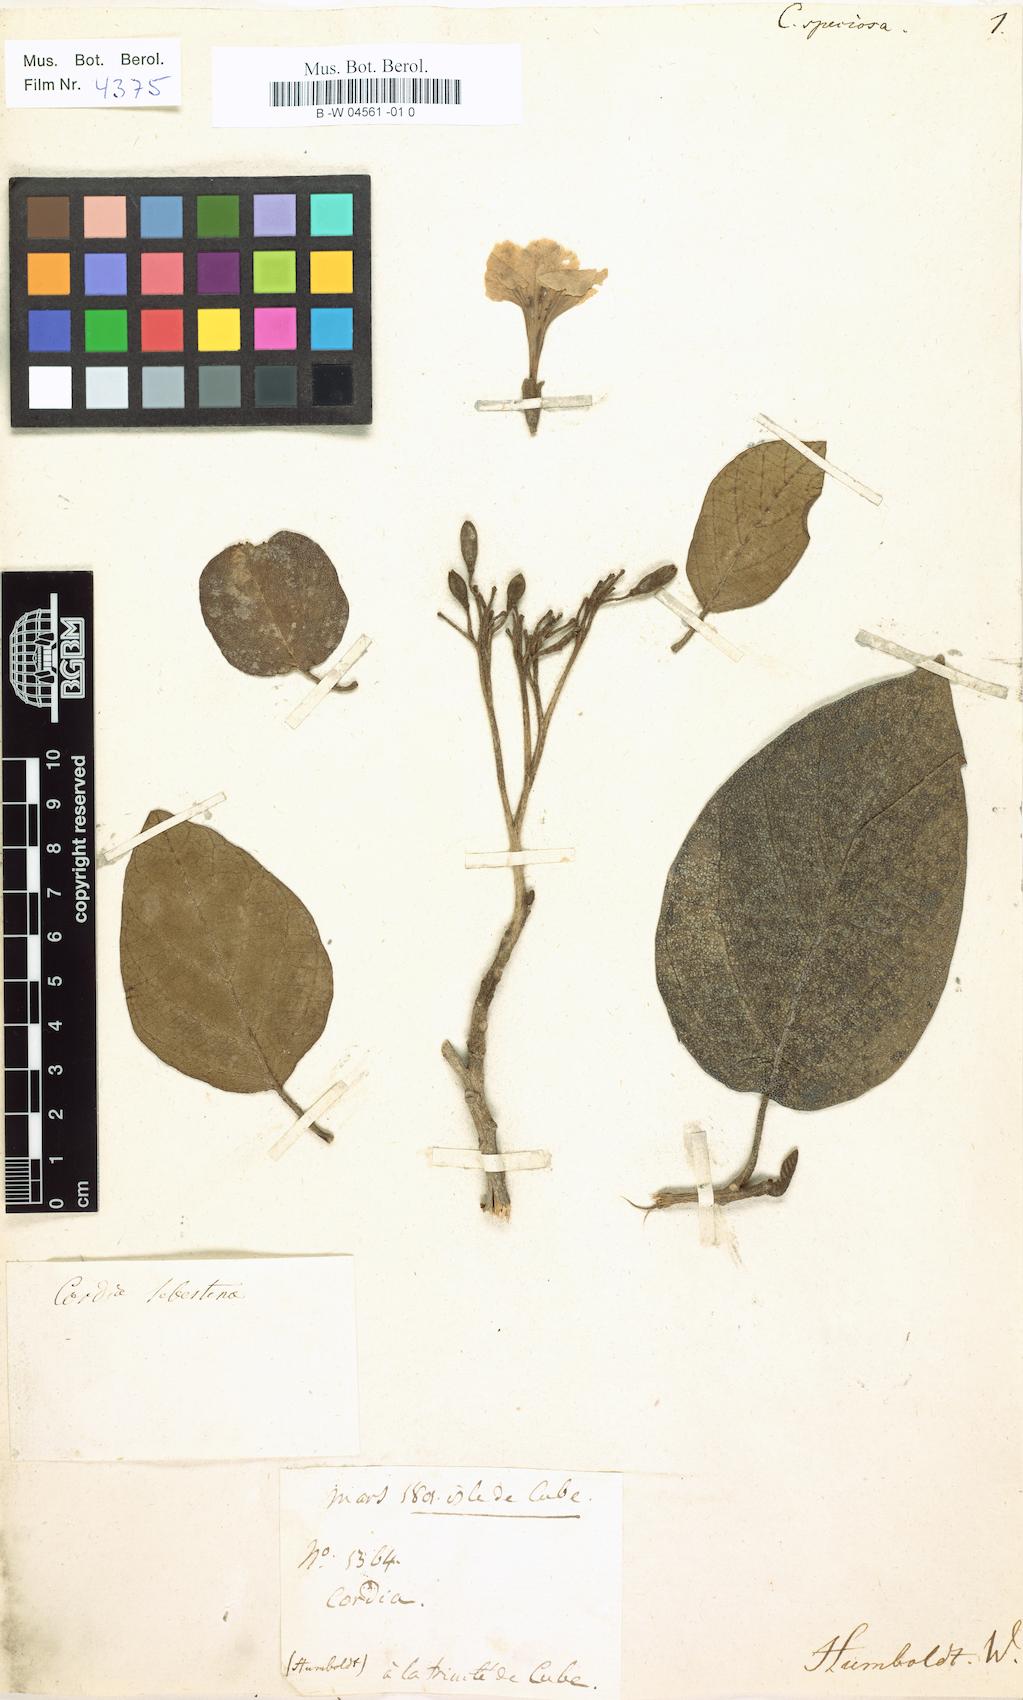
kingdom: Plantae
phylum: Tracheophyta
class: Magnoliopsida
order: Boraginales
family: Cordiaceae
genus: Cordia
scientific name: Cordia sebestena
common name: Largeleaf geigertree
